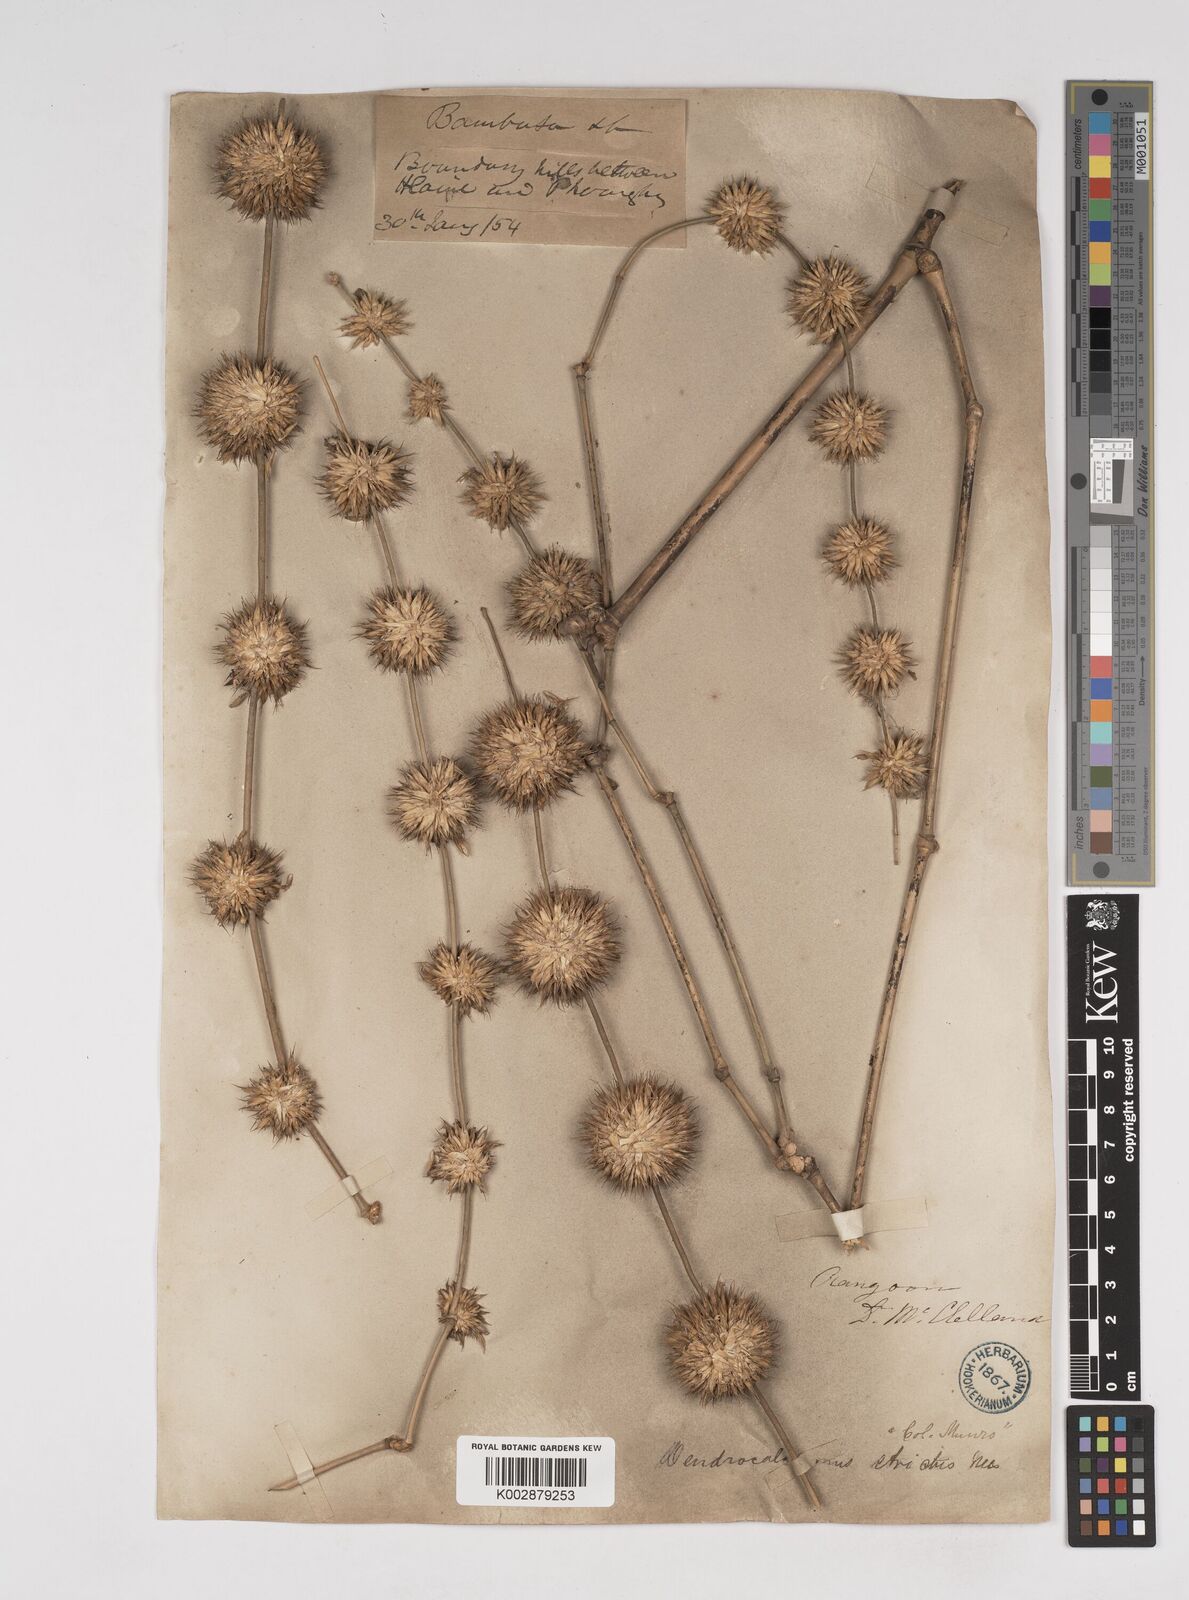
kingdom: Plantae
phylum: Tracheophyta
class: Liliopsida
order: Poales
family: Poaceae
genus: Dendrocalamus
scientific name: Dendrocalamus strictus
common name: Male bamboo
